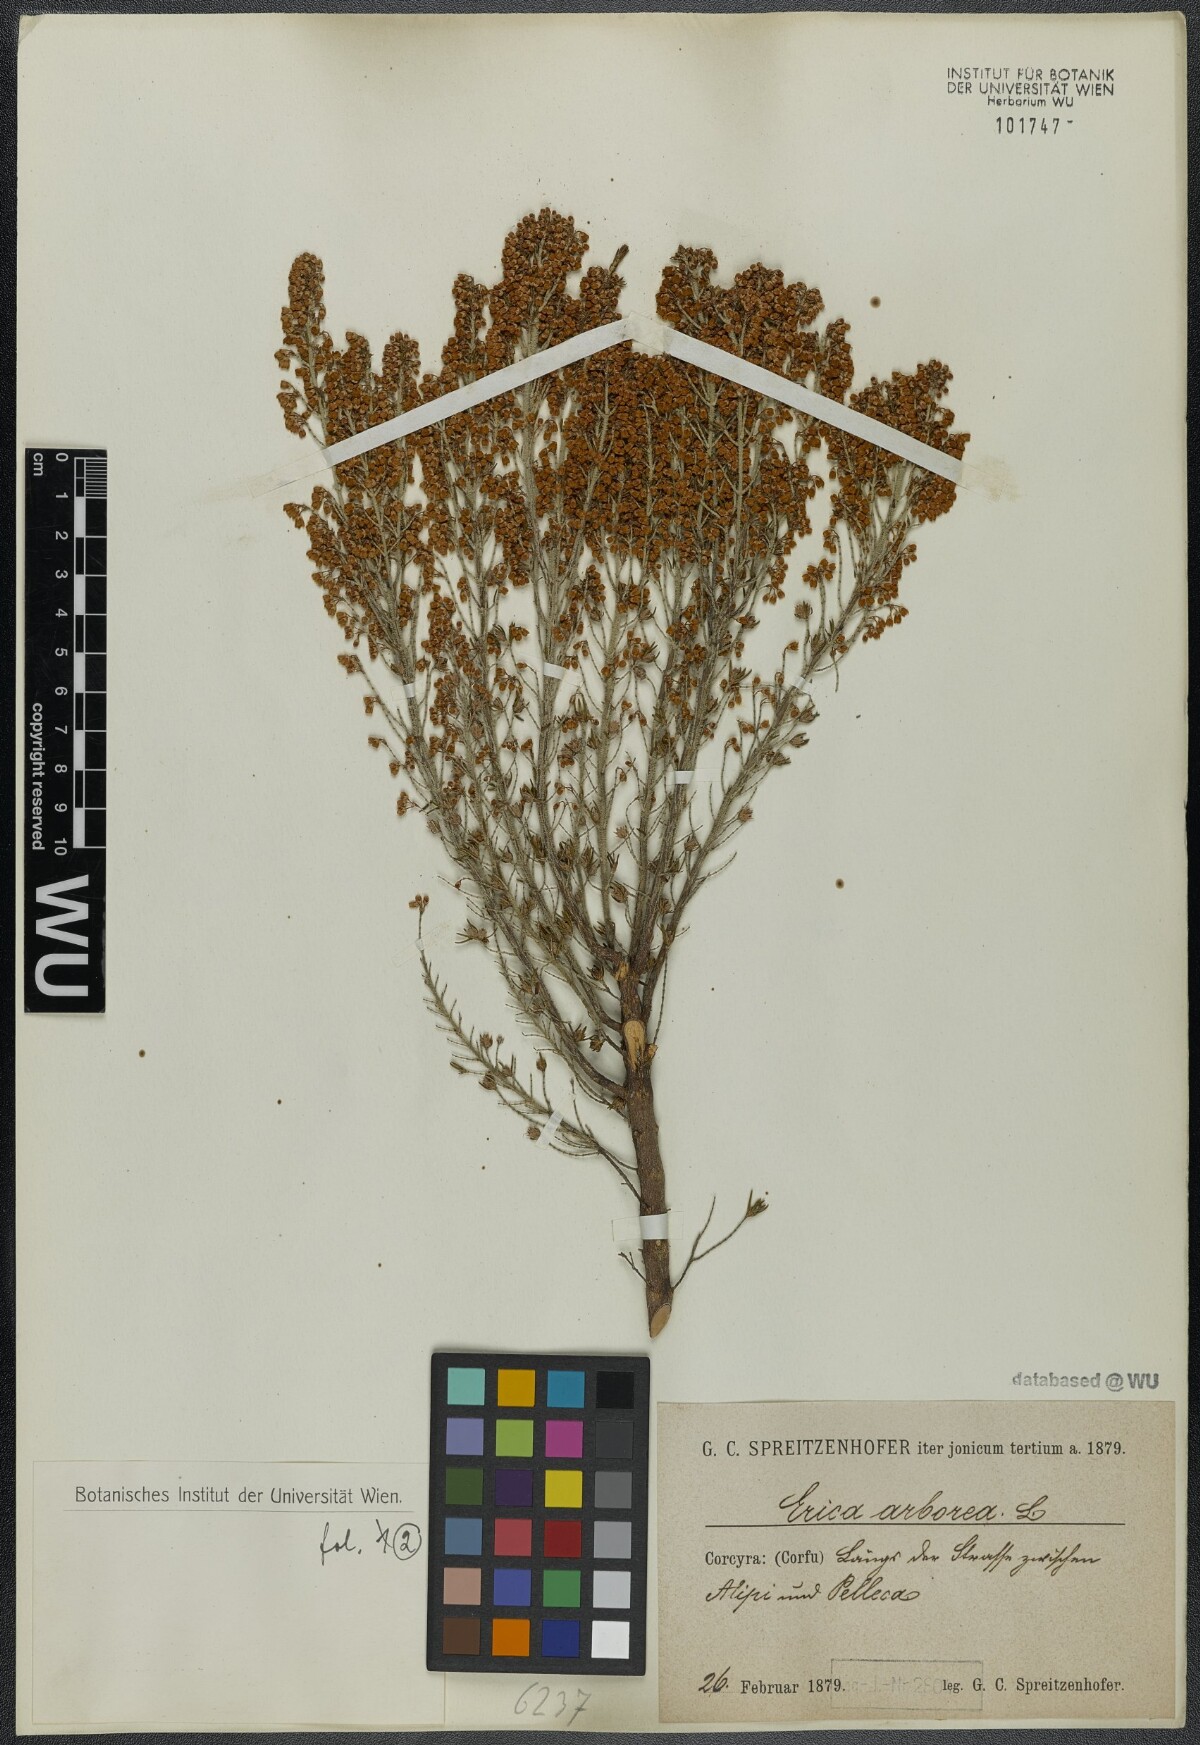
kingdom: Plantae
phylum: Tracheophyta
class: Magnoliopsida
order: Ericales
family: Ericaceae
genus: Erica
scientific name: Erica arborea
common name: Tree heath
